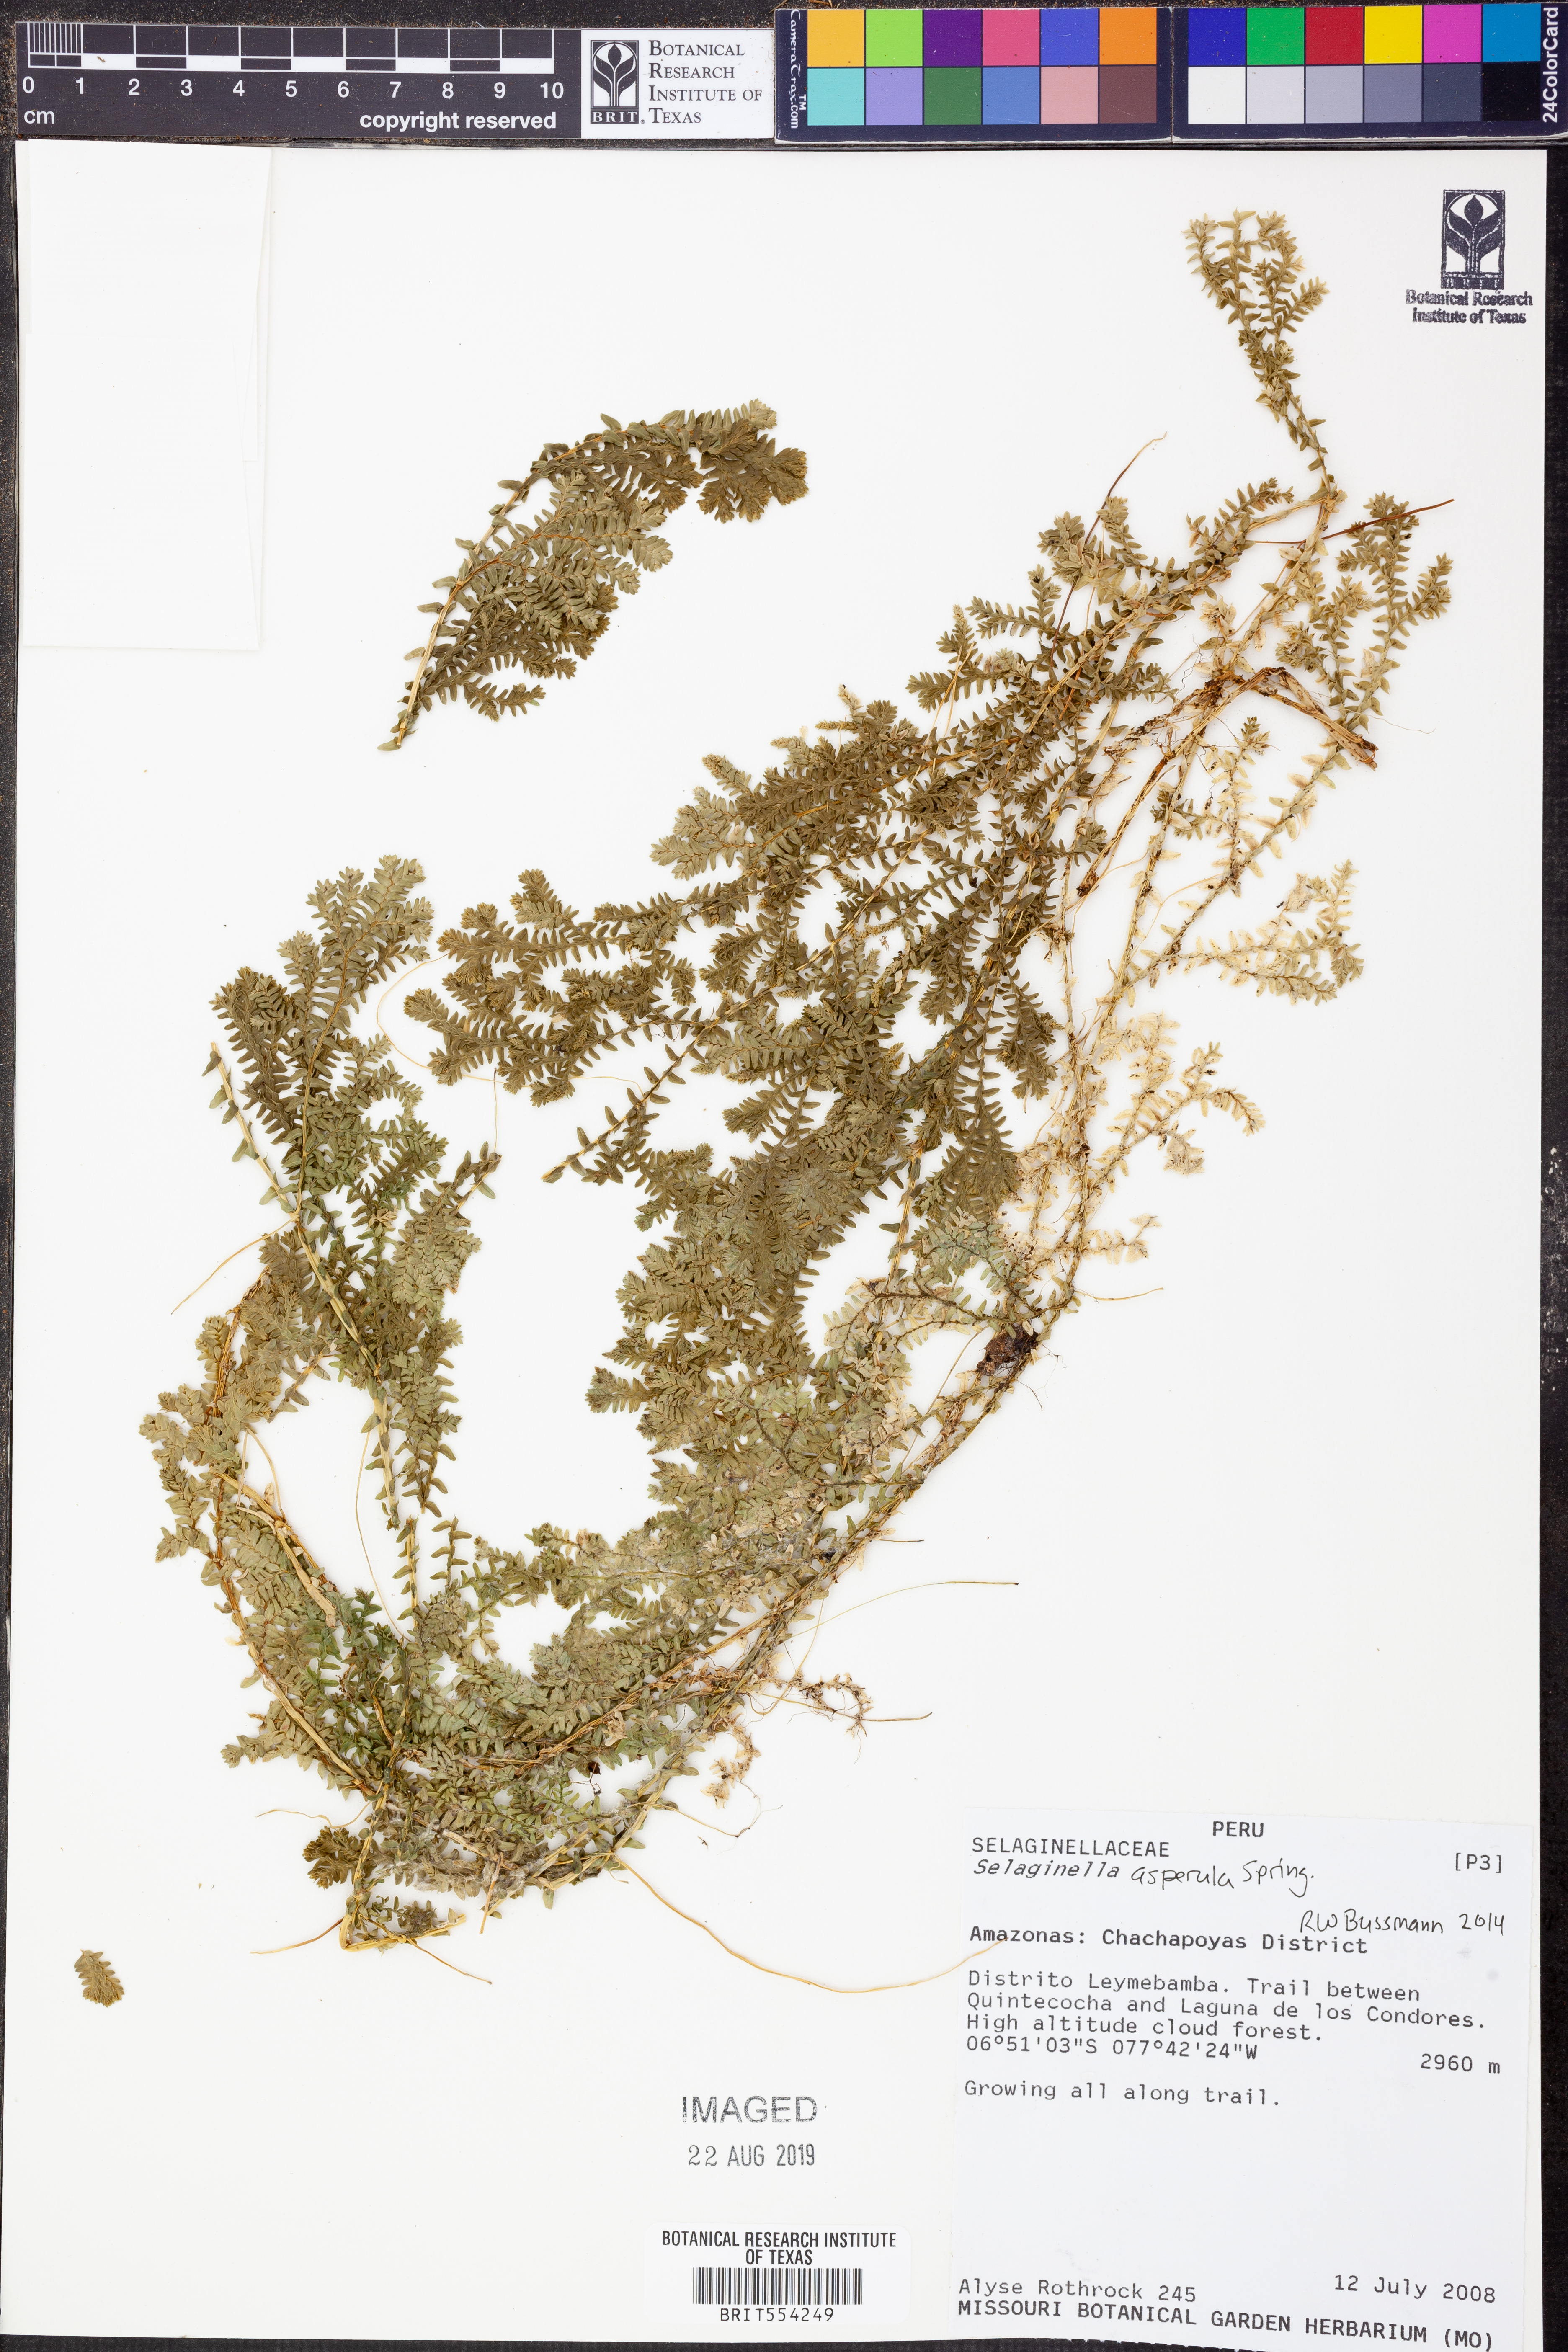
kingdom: Plantae
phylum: Tracheophyta
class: Lycopodiopsida
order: Selaginellales
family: Selaginellaceae
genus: Selaginella
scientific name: Selaginella trisulcata
